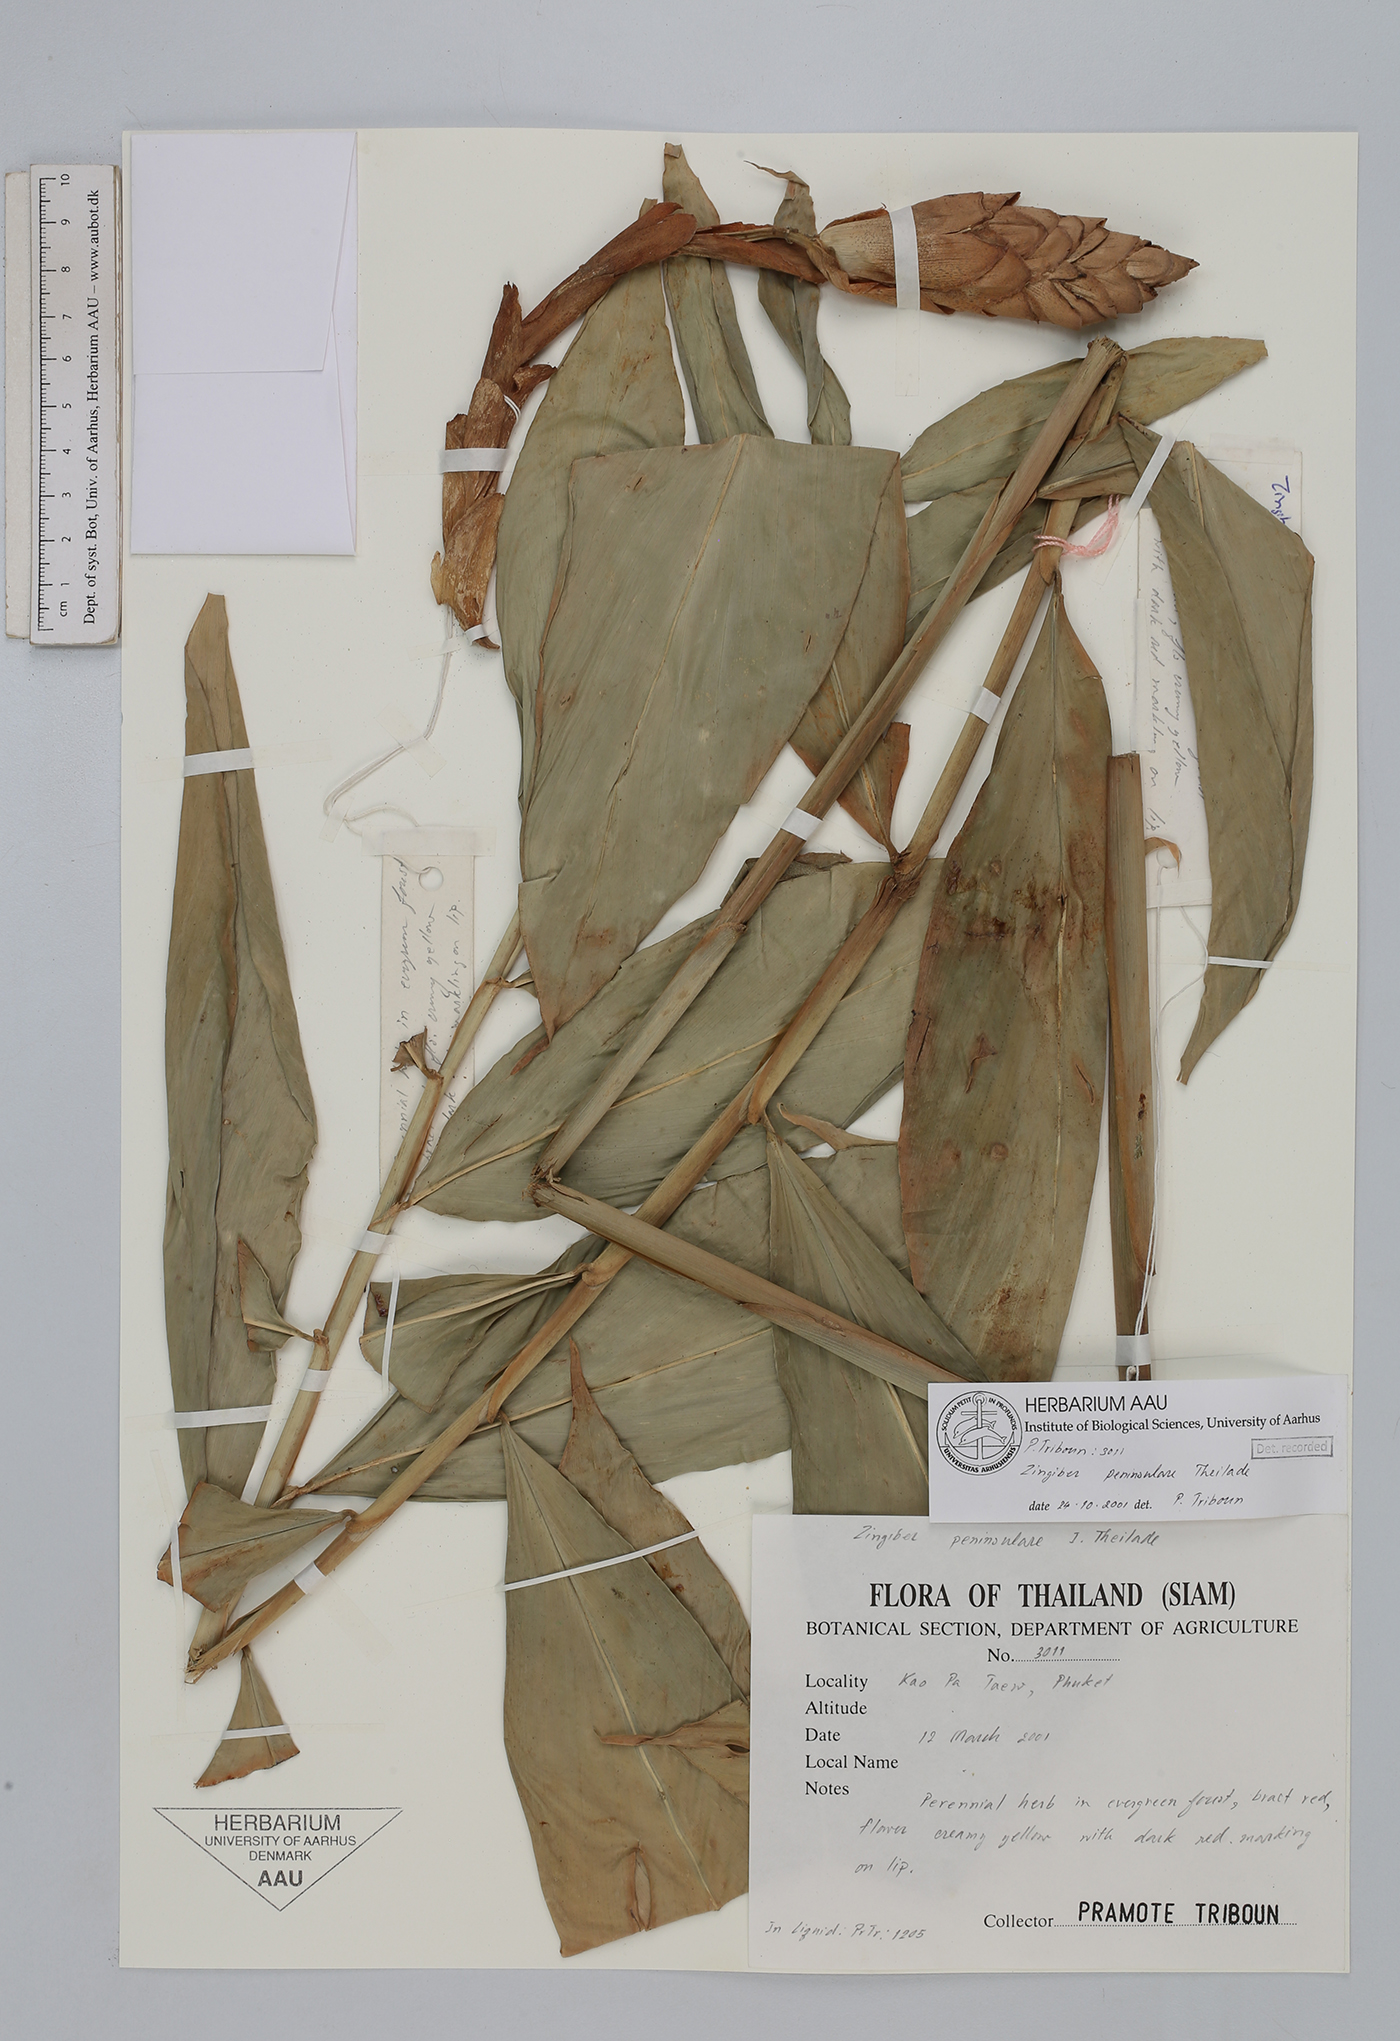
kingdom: Plantae
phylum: Tracheophyta
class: Liliopsida
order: Zingiberales
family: Zingiberaceae
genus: Zingiber
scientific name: Zingiber montanum
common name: Bengal ginger
